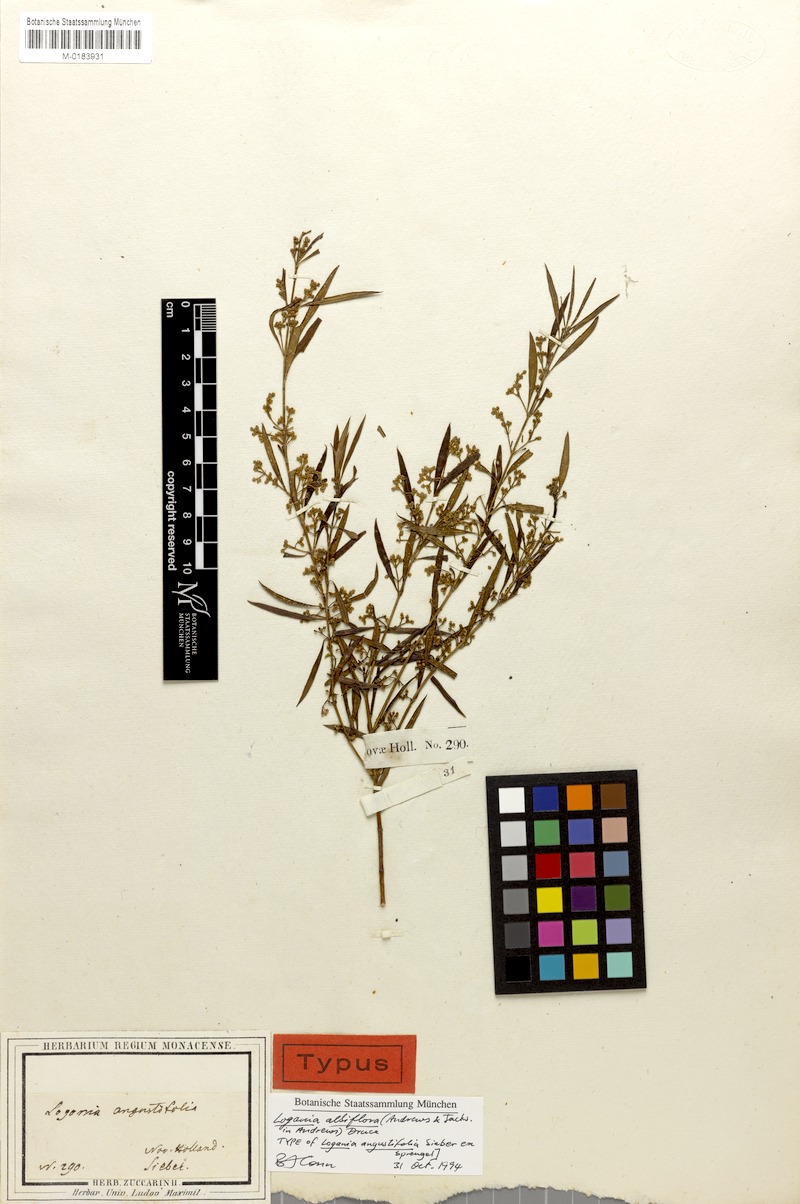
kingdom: Plantae
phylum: Tracheophyta
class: Magnoliopsida
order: Gentianales
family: Loganiaceae
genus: Logania
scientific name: Logania albiflora
